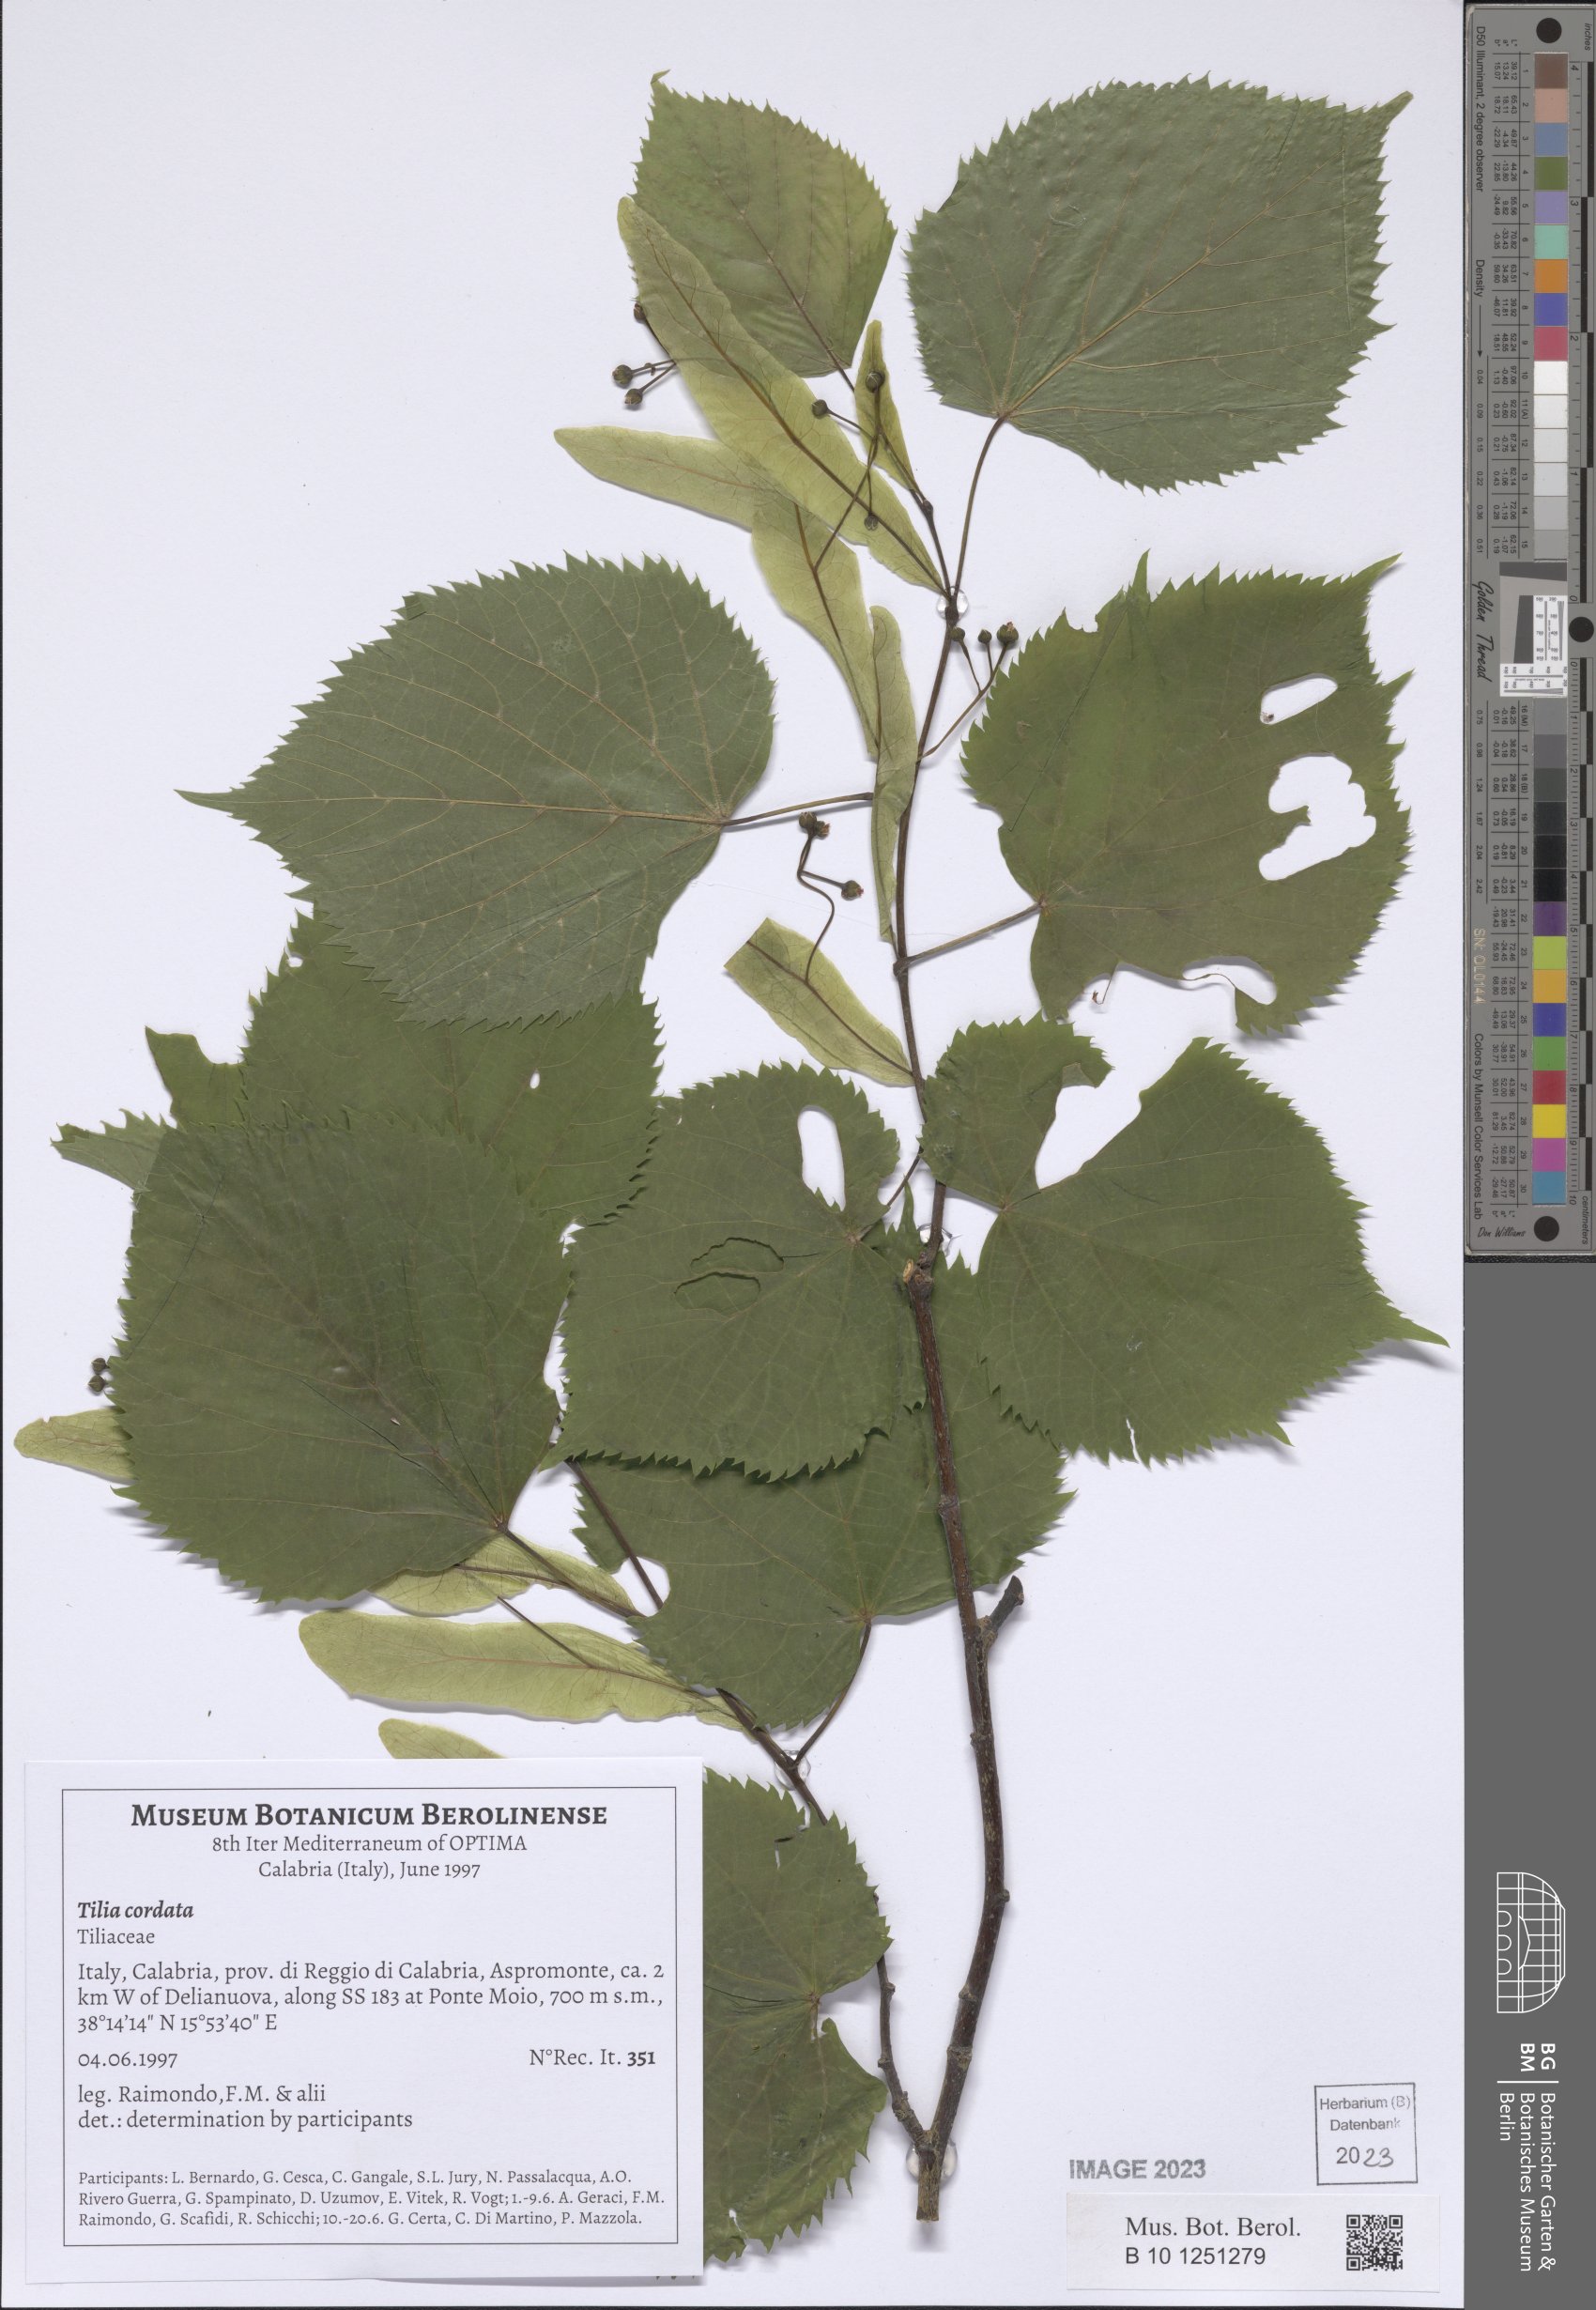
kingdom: Plantae
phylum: Tracheophyta
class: Magnoliopsida
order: Malvales
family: Malvaceae
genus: Tilia
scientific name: Tilia cordata
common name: Small-leaved lime
